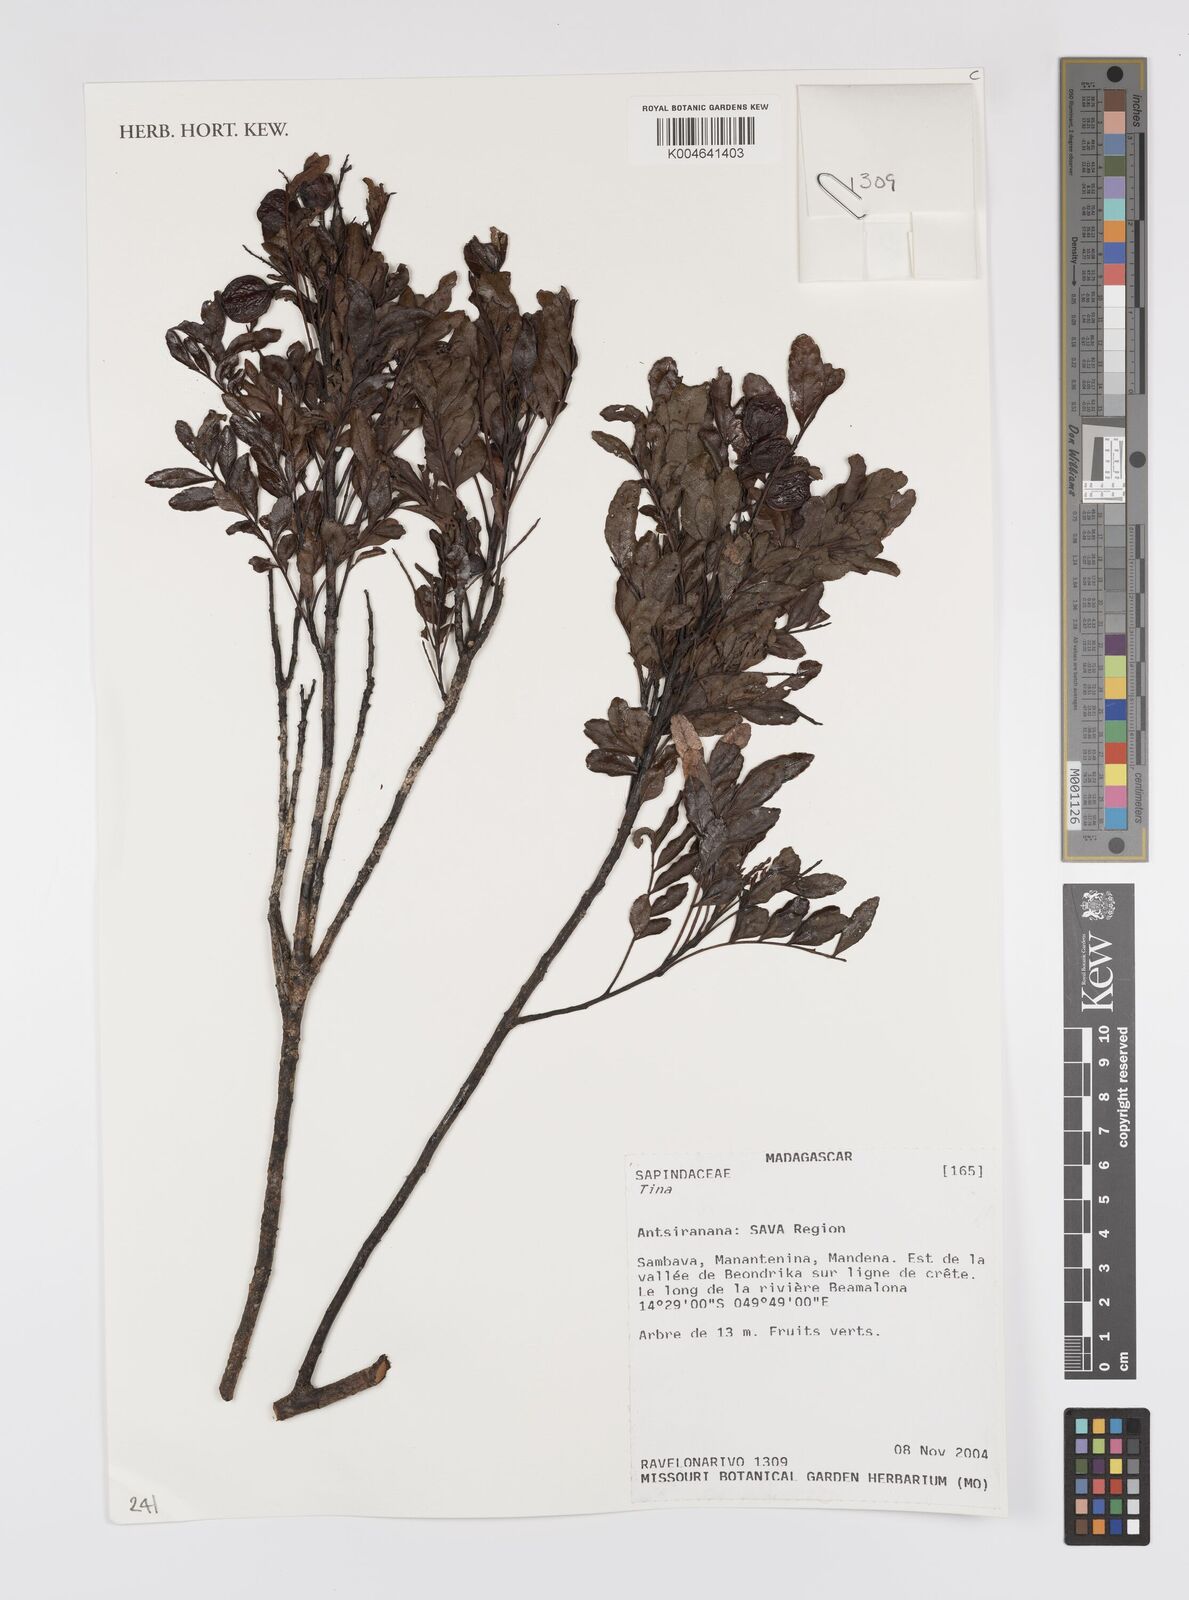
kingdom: Plantae
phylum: Tracheophyta
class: Magnoliopsida
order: Sapindales
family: Sapindaceae
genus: Tina
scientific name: Tina
